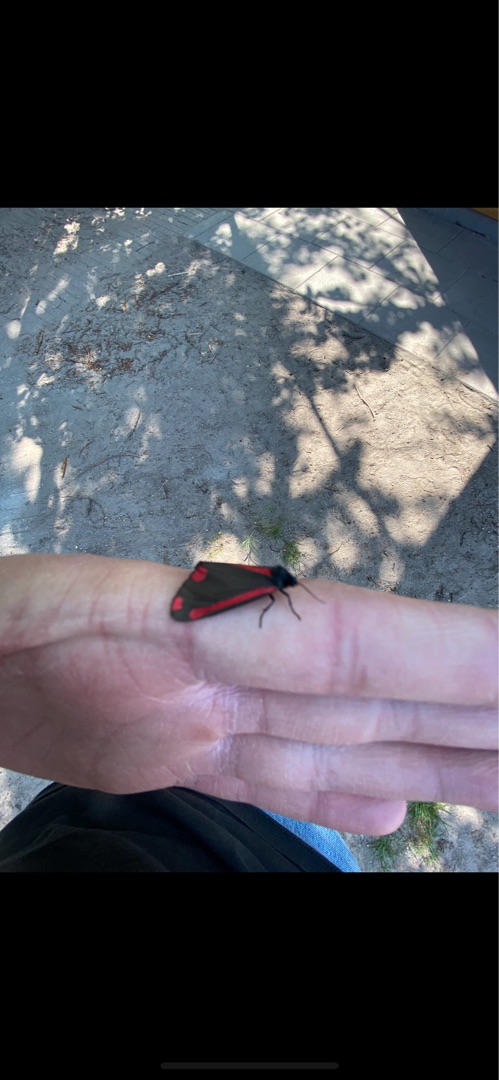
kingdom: Animalia
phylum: Arthropoda
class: Insecta
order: Lepidoptera
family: Erebidae
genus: Tyria
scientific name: Tyria jacobaeae
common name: Blodplet
